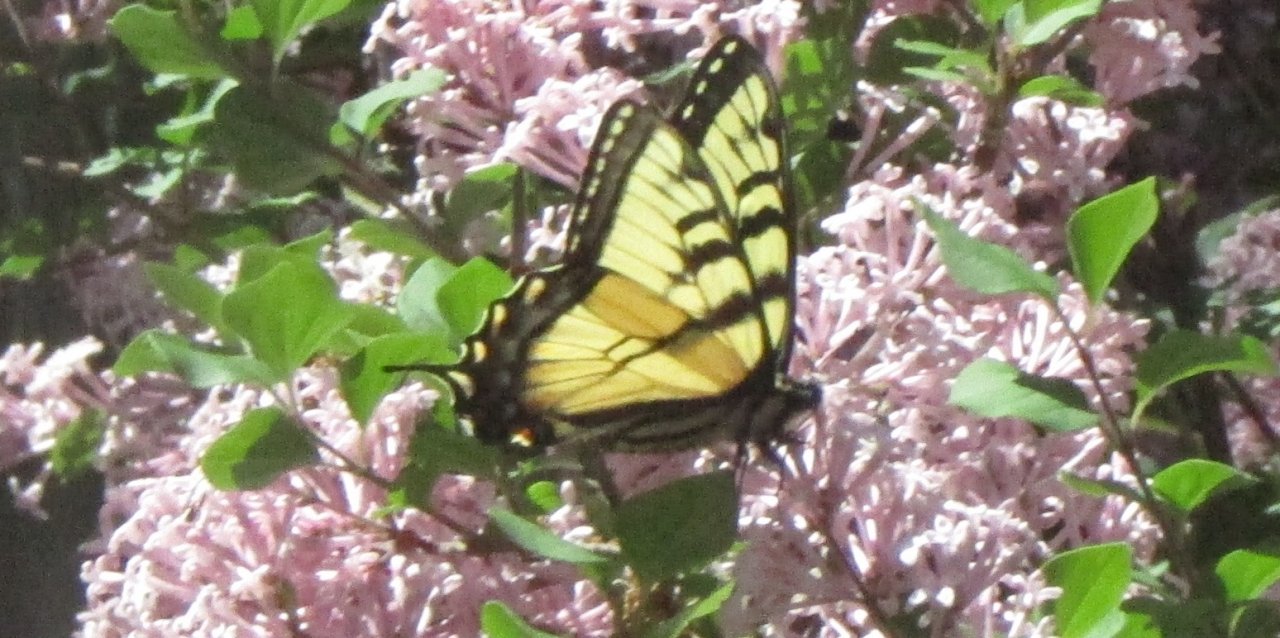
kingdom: Animalia
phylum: Arthropoda
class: Insecta
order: Lepidoptera
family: Papilionidae
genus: Pterourus
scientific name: Pterourus glaucus
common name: Eastern Tiger Swallowtail
